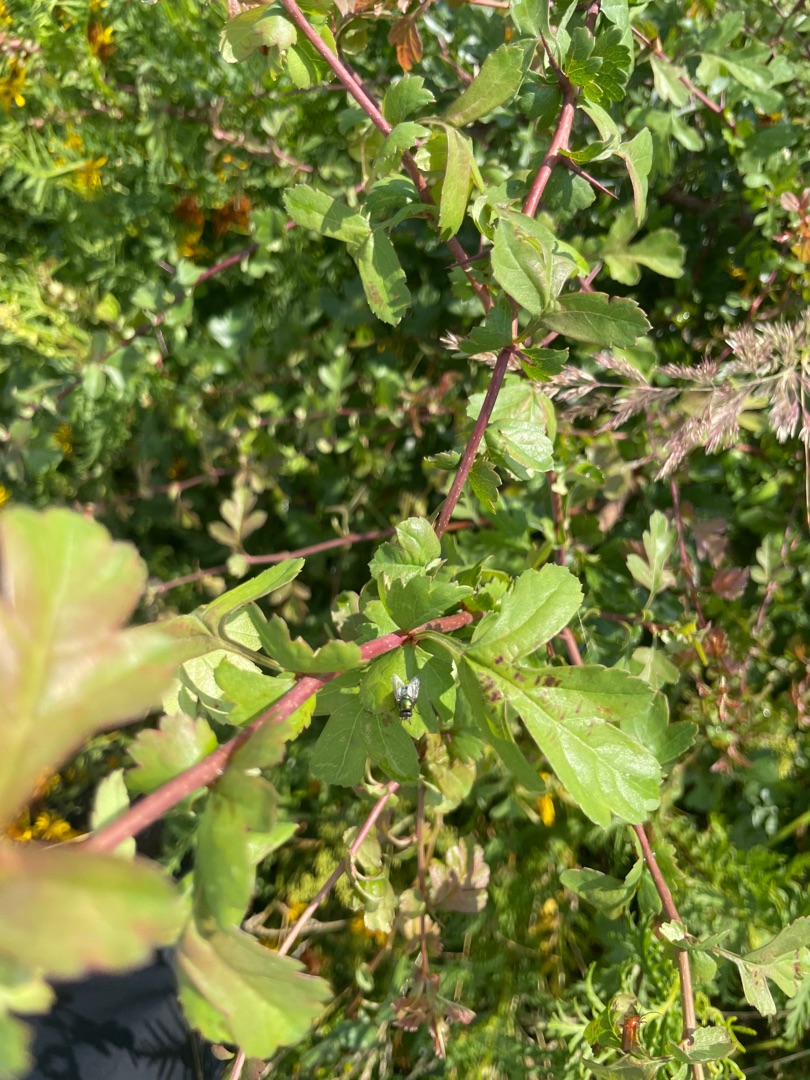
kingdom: Plantae
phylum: Tracheophyta
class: Magnoliopsida
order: Rosales
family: Rosaceae
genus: Crataegus
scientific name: Crataegus monogyna
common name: Engriflet hvidtjørn
